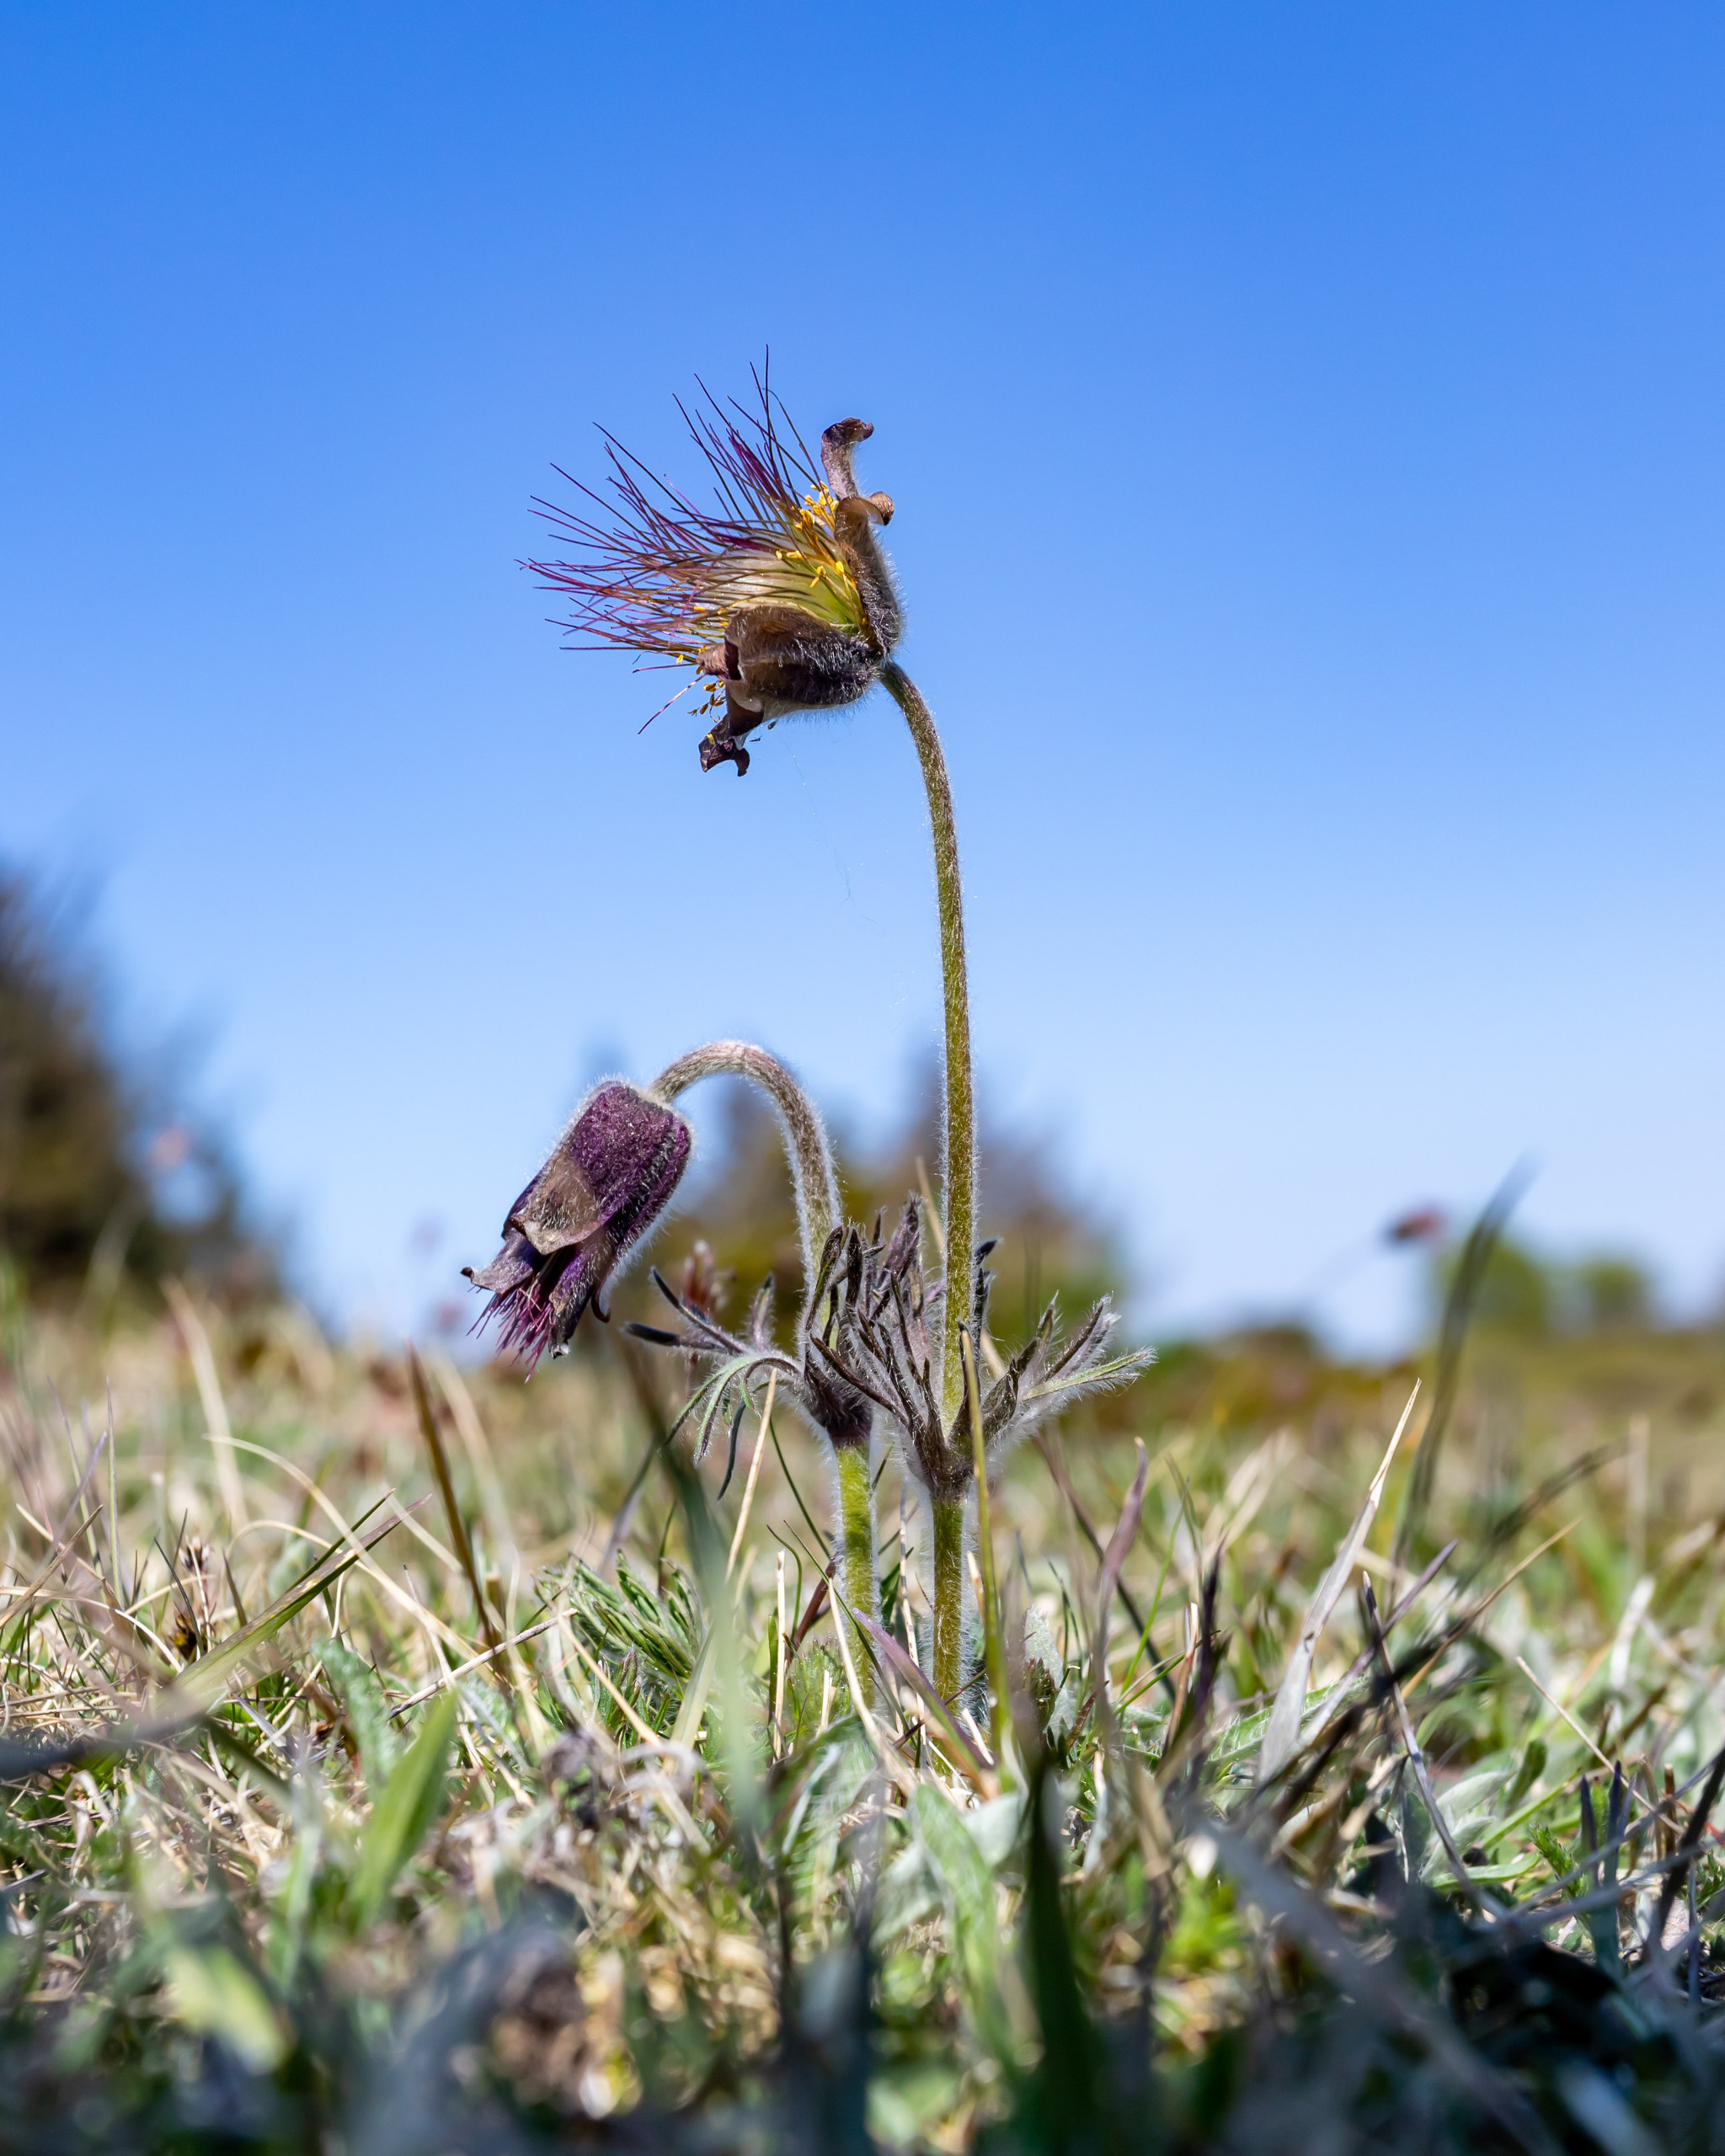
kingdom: Plantae
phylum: Tracheophyta
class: Magnoliopsida
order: Ranunculales
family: Ranunculaceae
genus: Pulsatilla
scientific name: Pulsatilla pratensis
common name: Nikkende kobjælde
